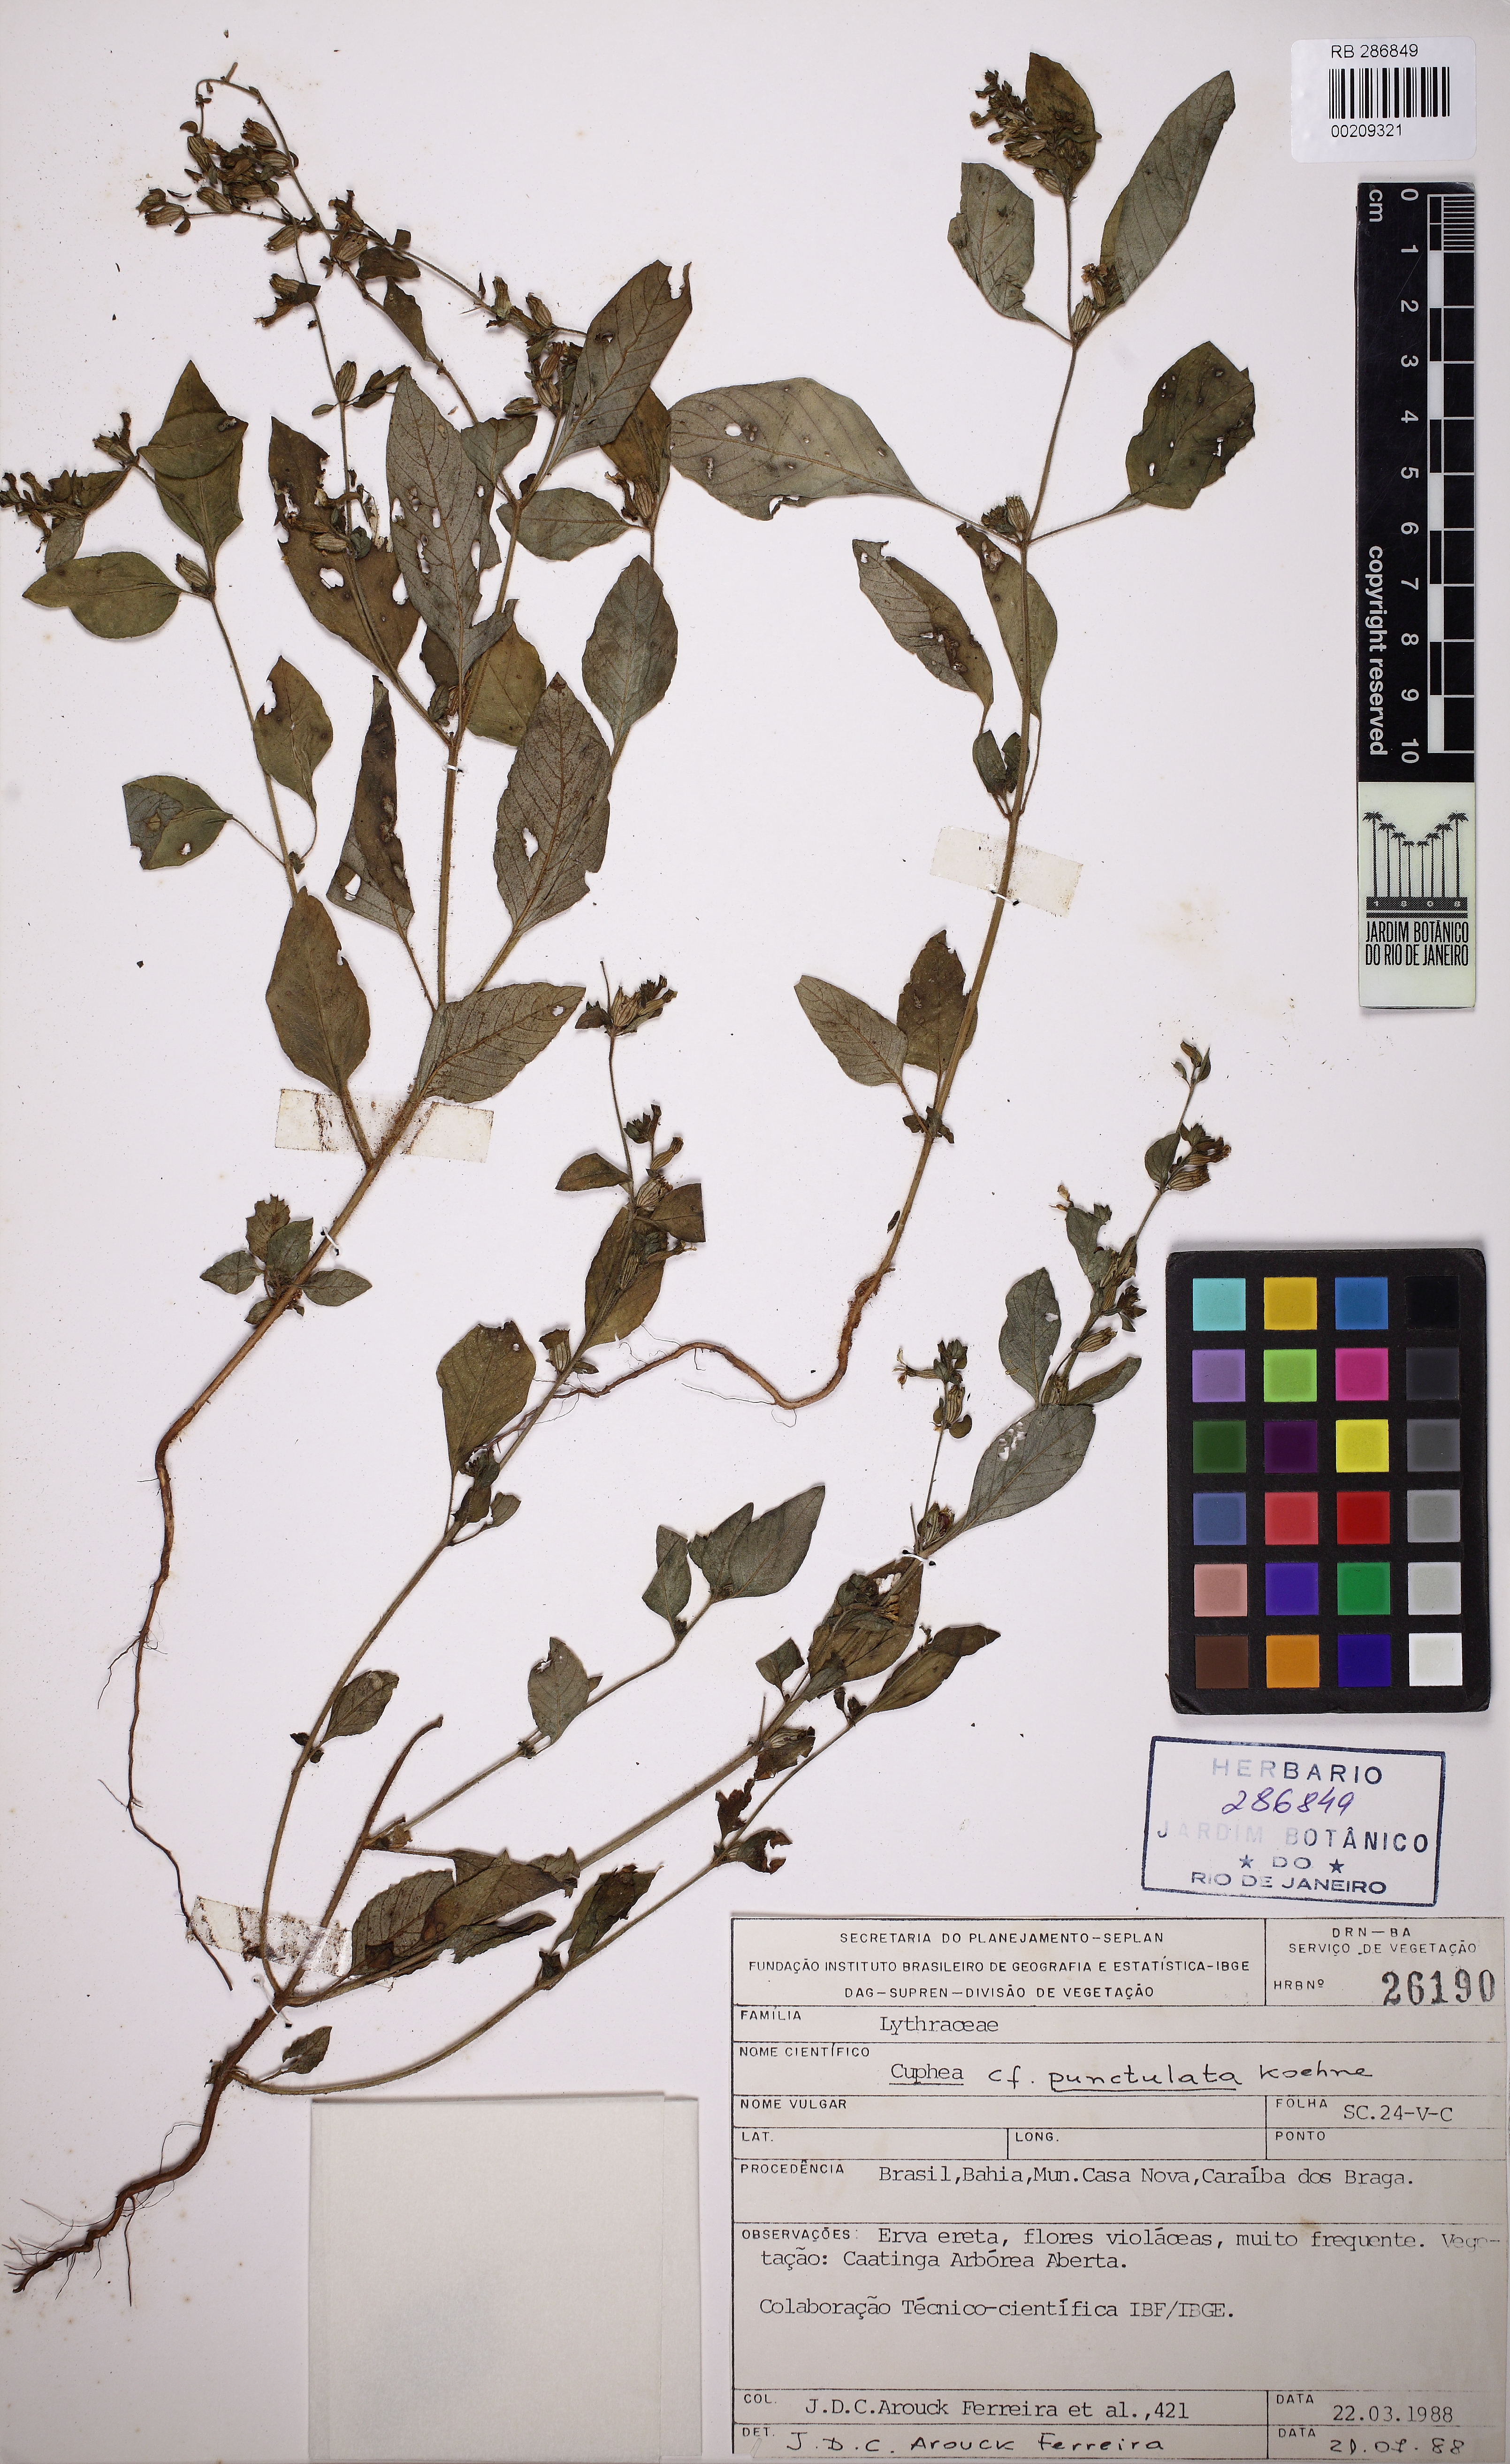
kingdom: Plantae
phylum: Tracheophyta
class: Magnoliopsida
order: Myrtales
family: Lythraceae
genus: Cuphea
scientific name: Cuphea impatientifolia
